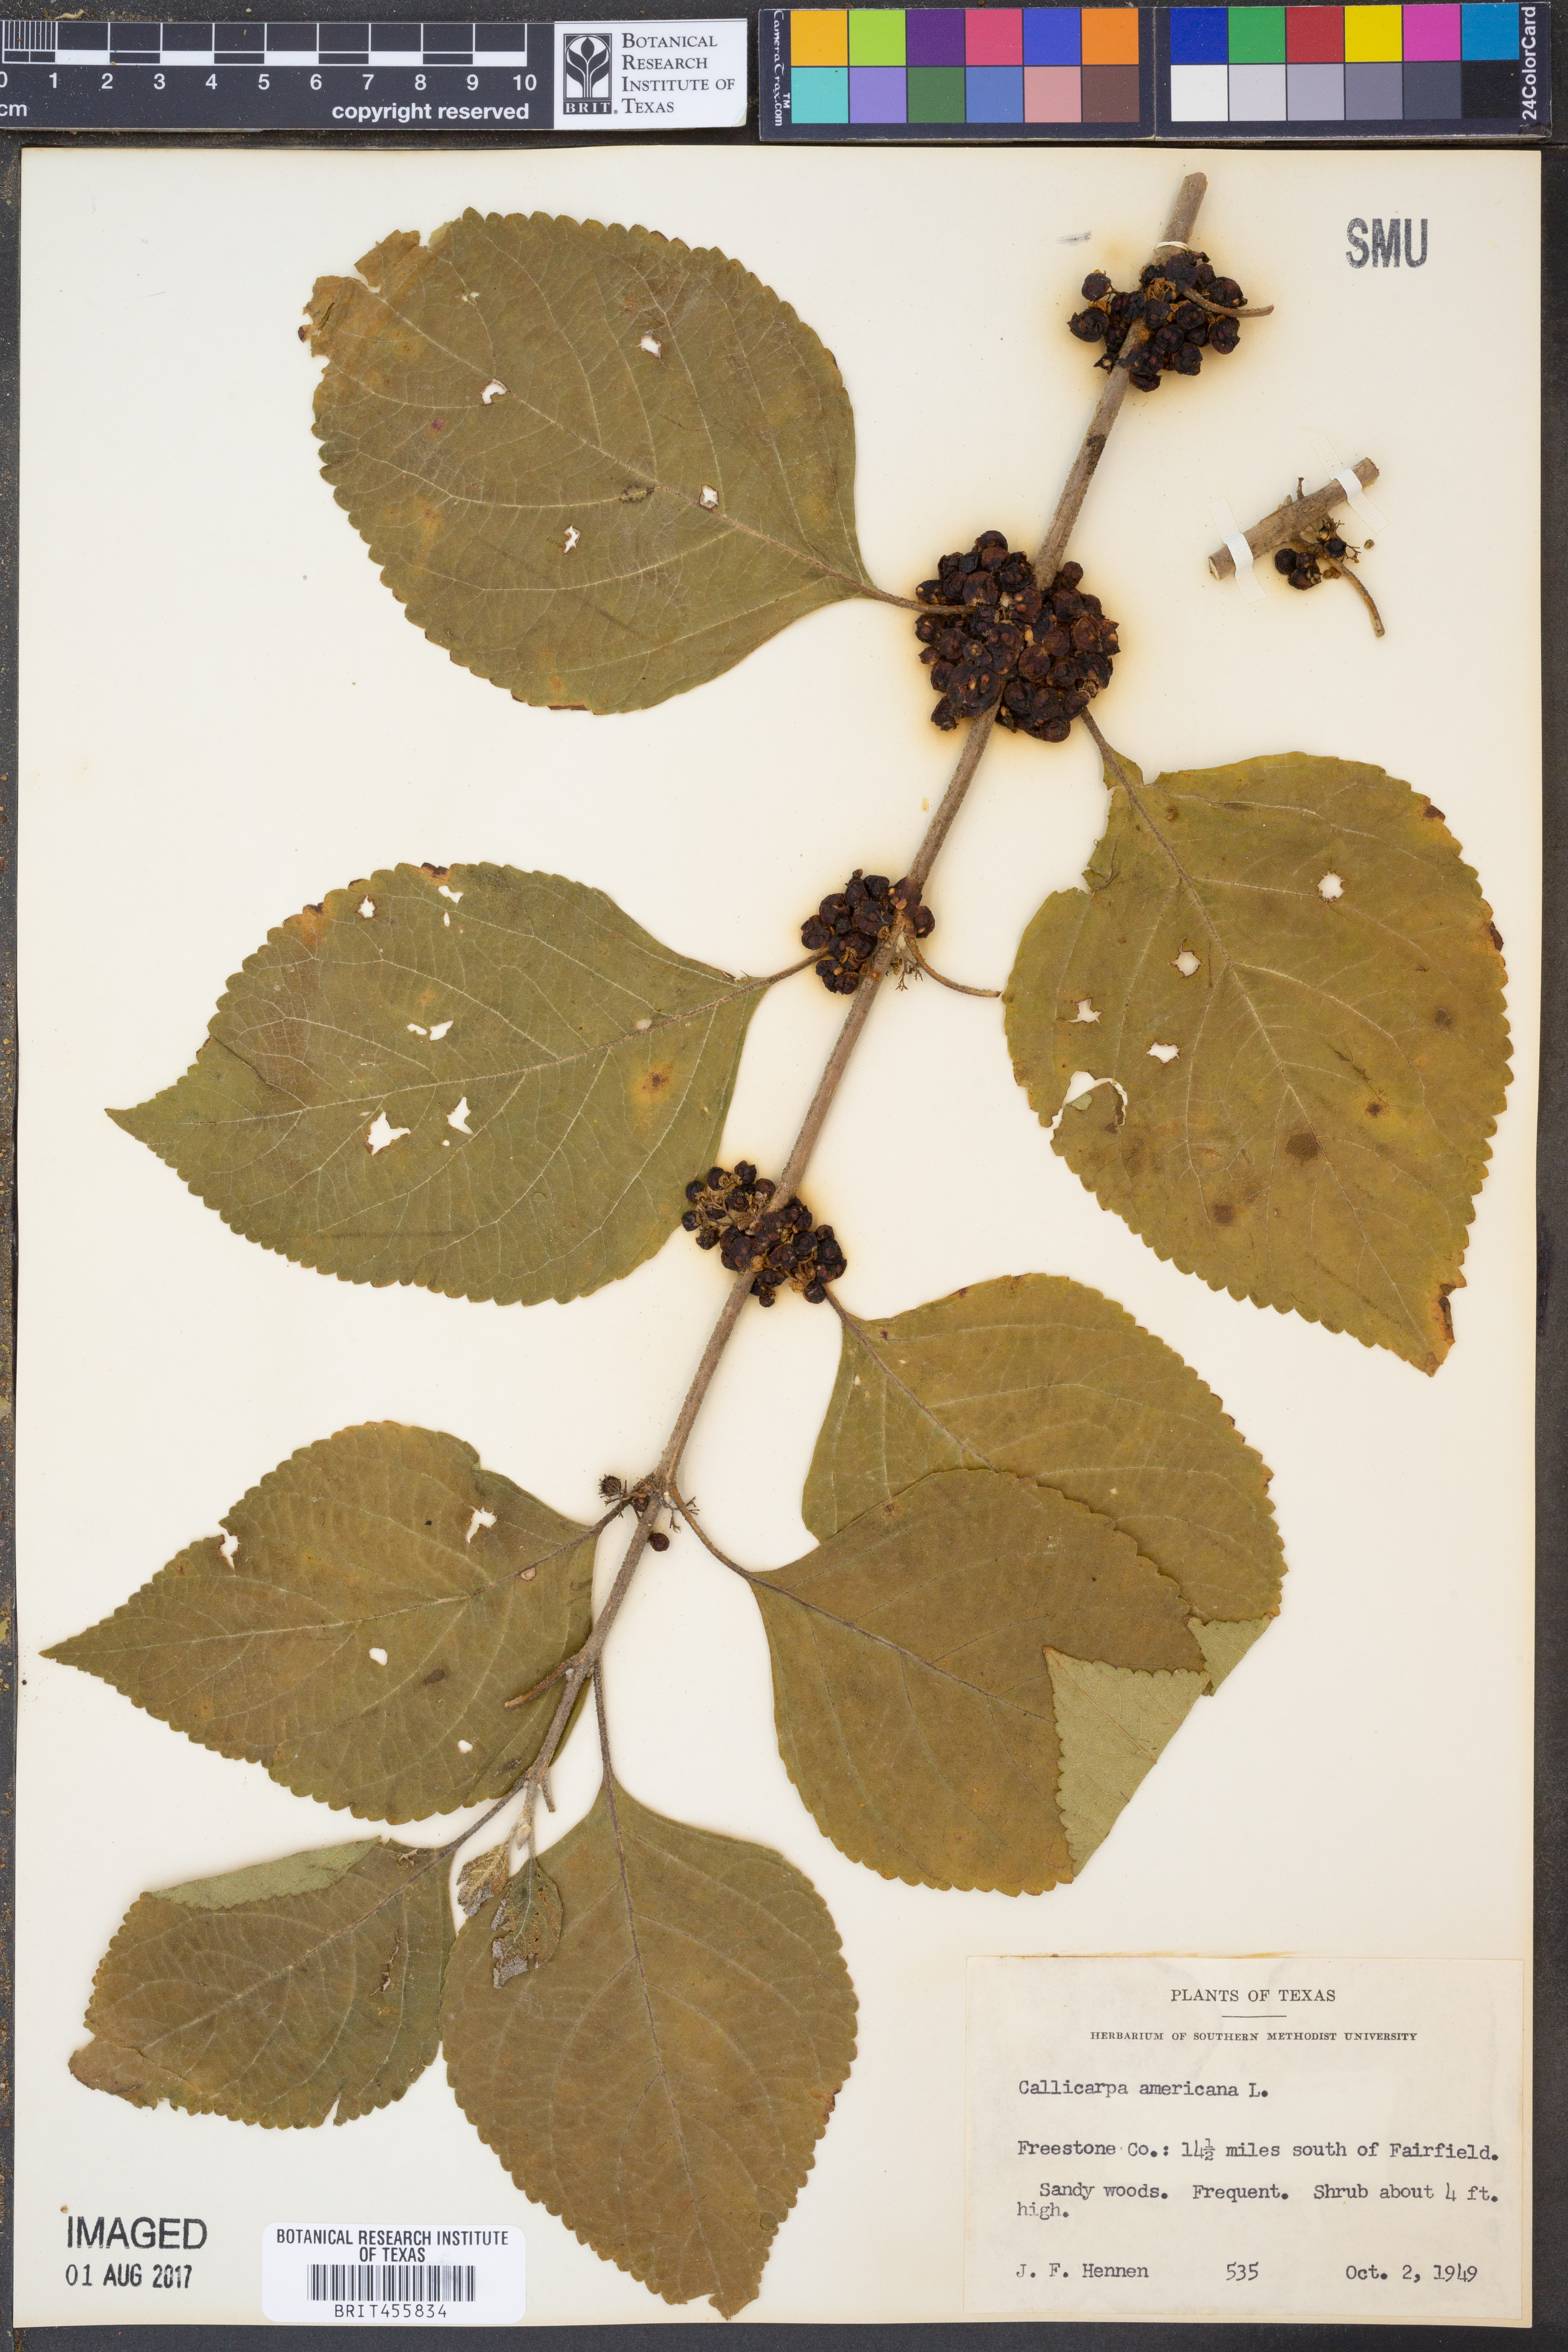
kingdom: Plantae
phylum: Tracheophyta
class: Magnoliopsida
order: Lamiales
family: Lamiaceae
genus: Callicarpa
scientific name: Callicarpa americana
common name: American beautyberry
